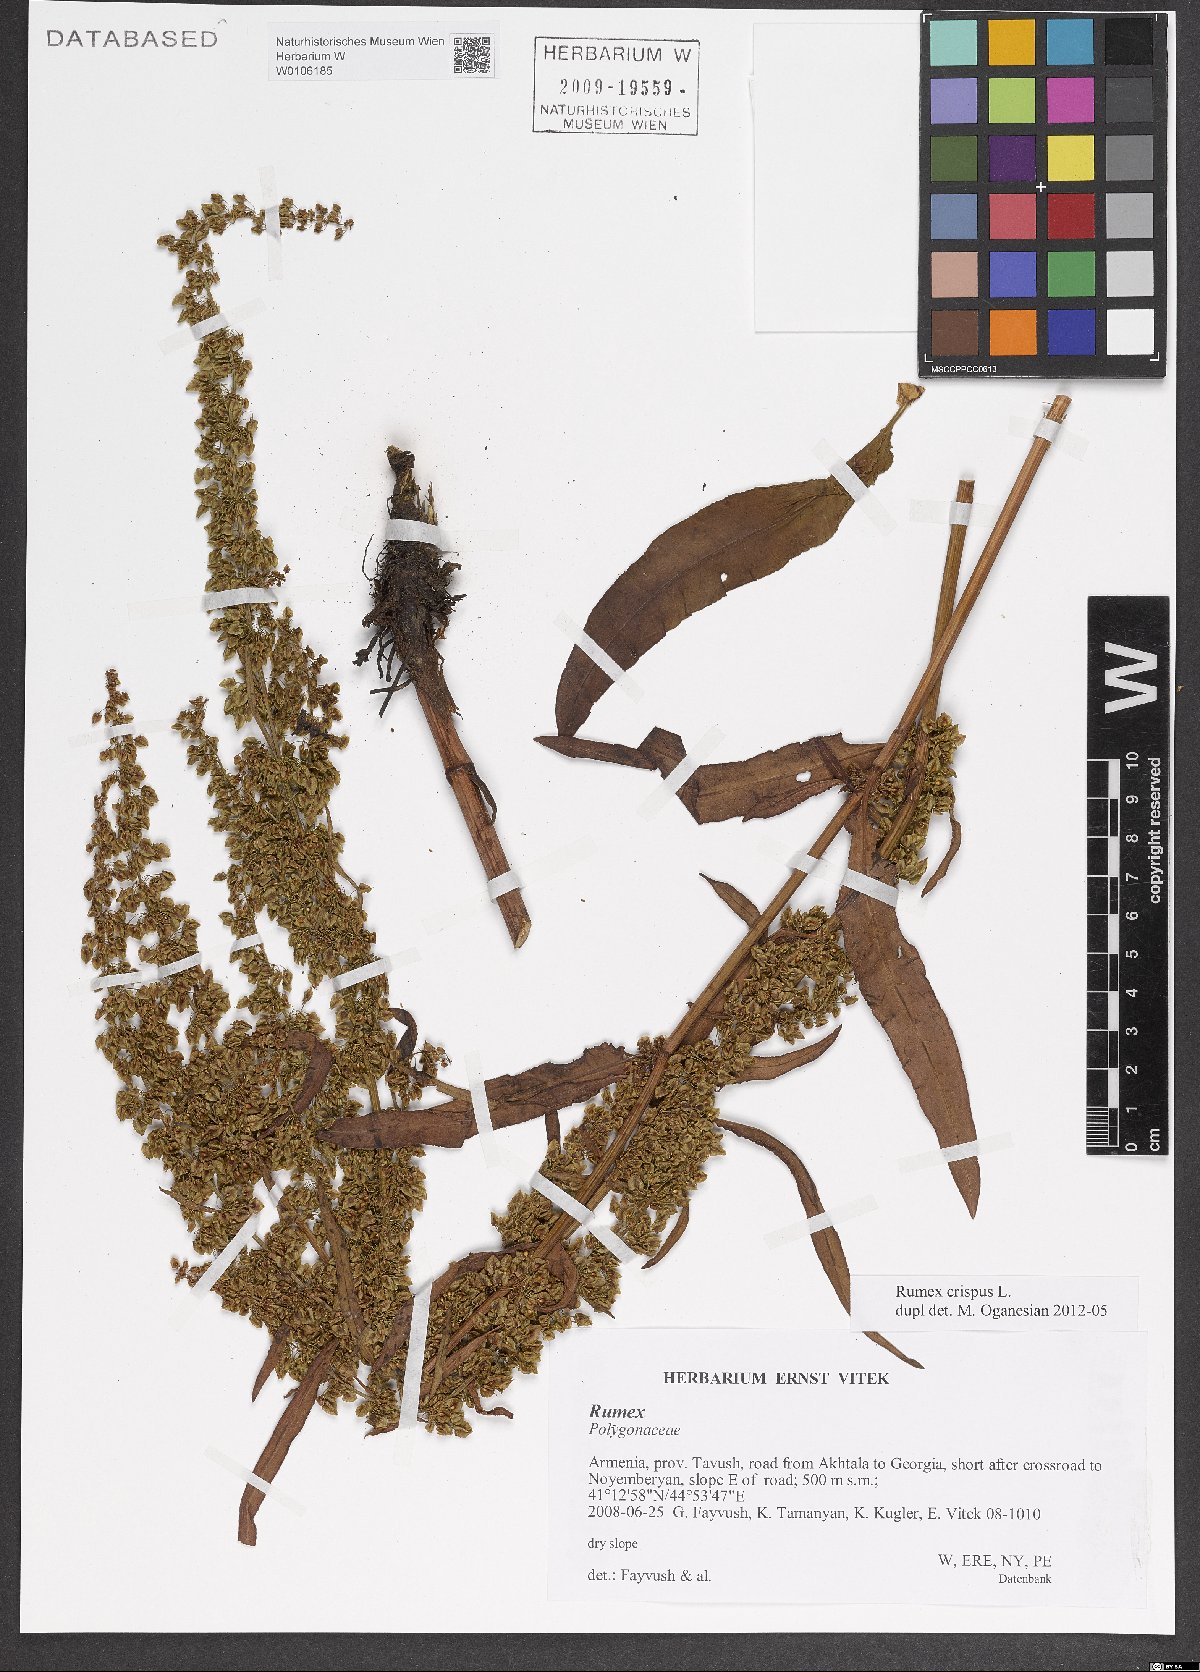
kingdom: Plantae
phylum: Tracheophyta
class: Magnoliopsida
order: Caryophyllales
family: Polygonaceae
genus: Rumex
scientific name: Rumex crispus
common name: Curled dock
